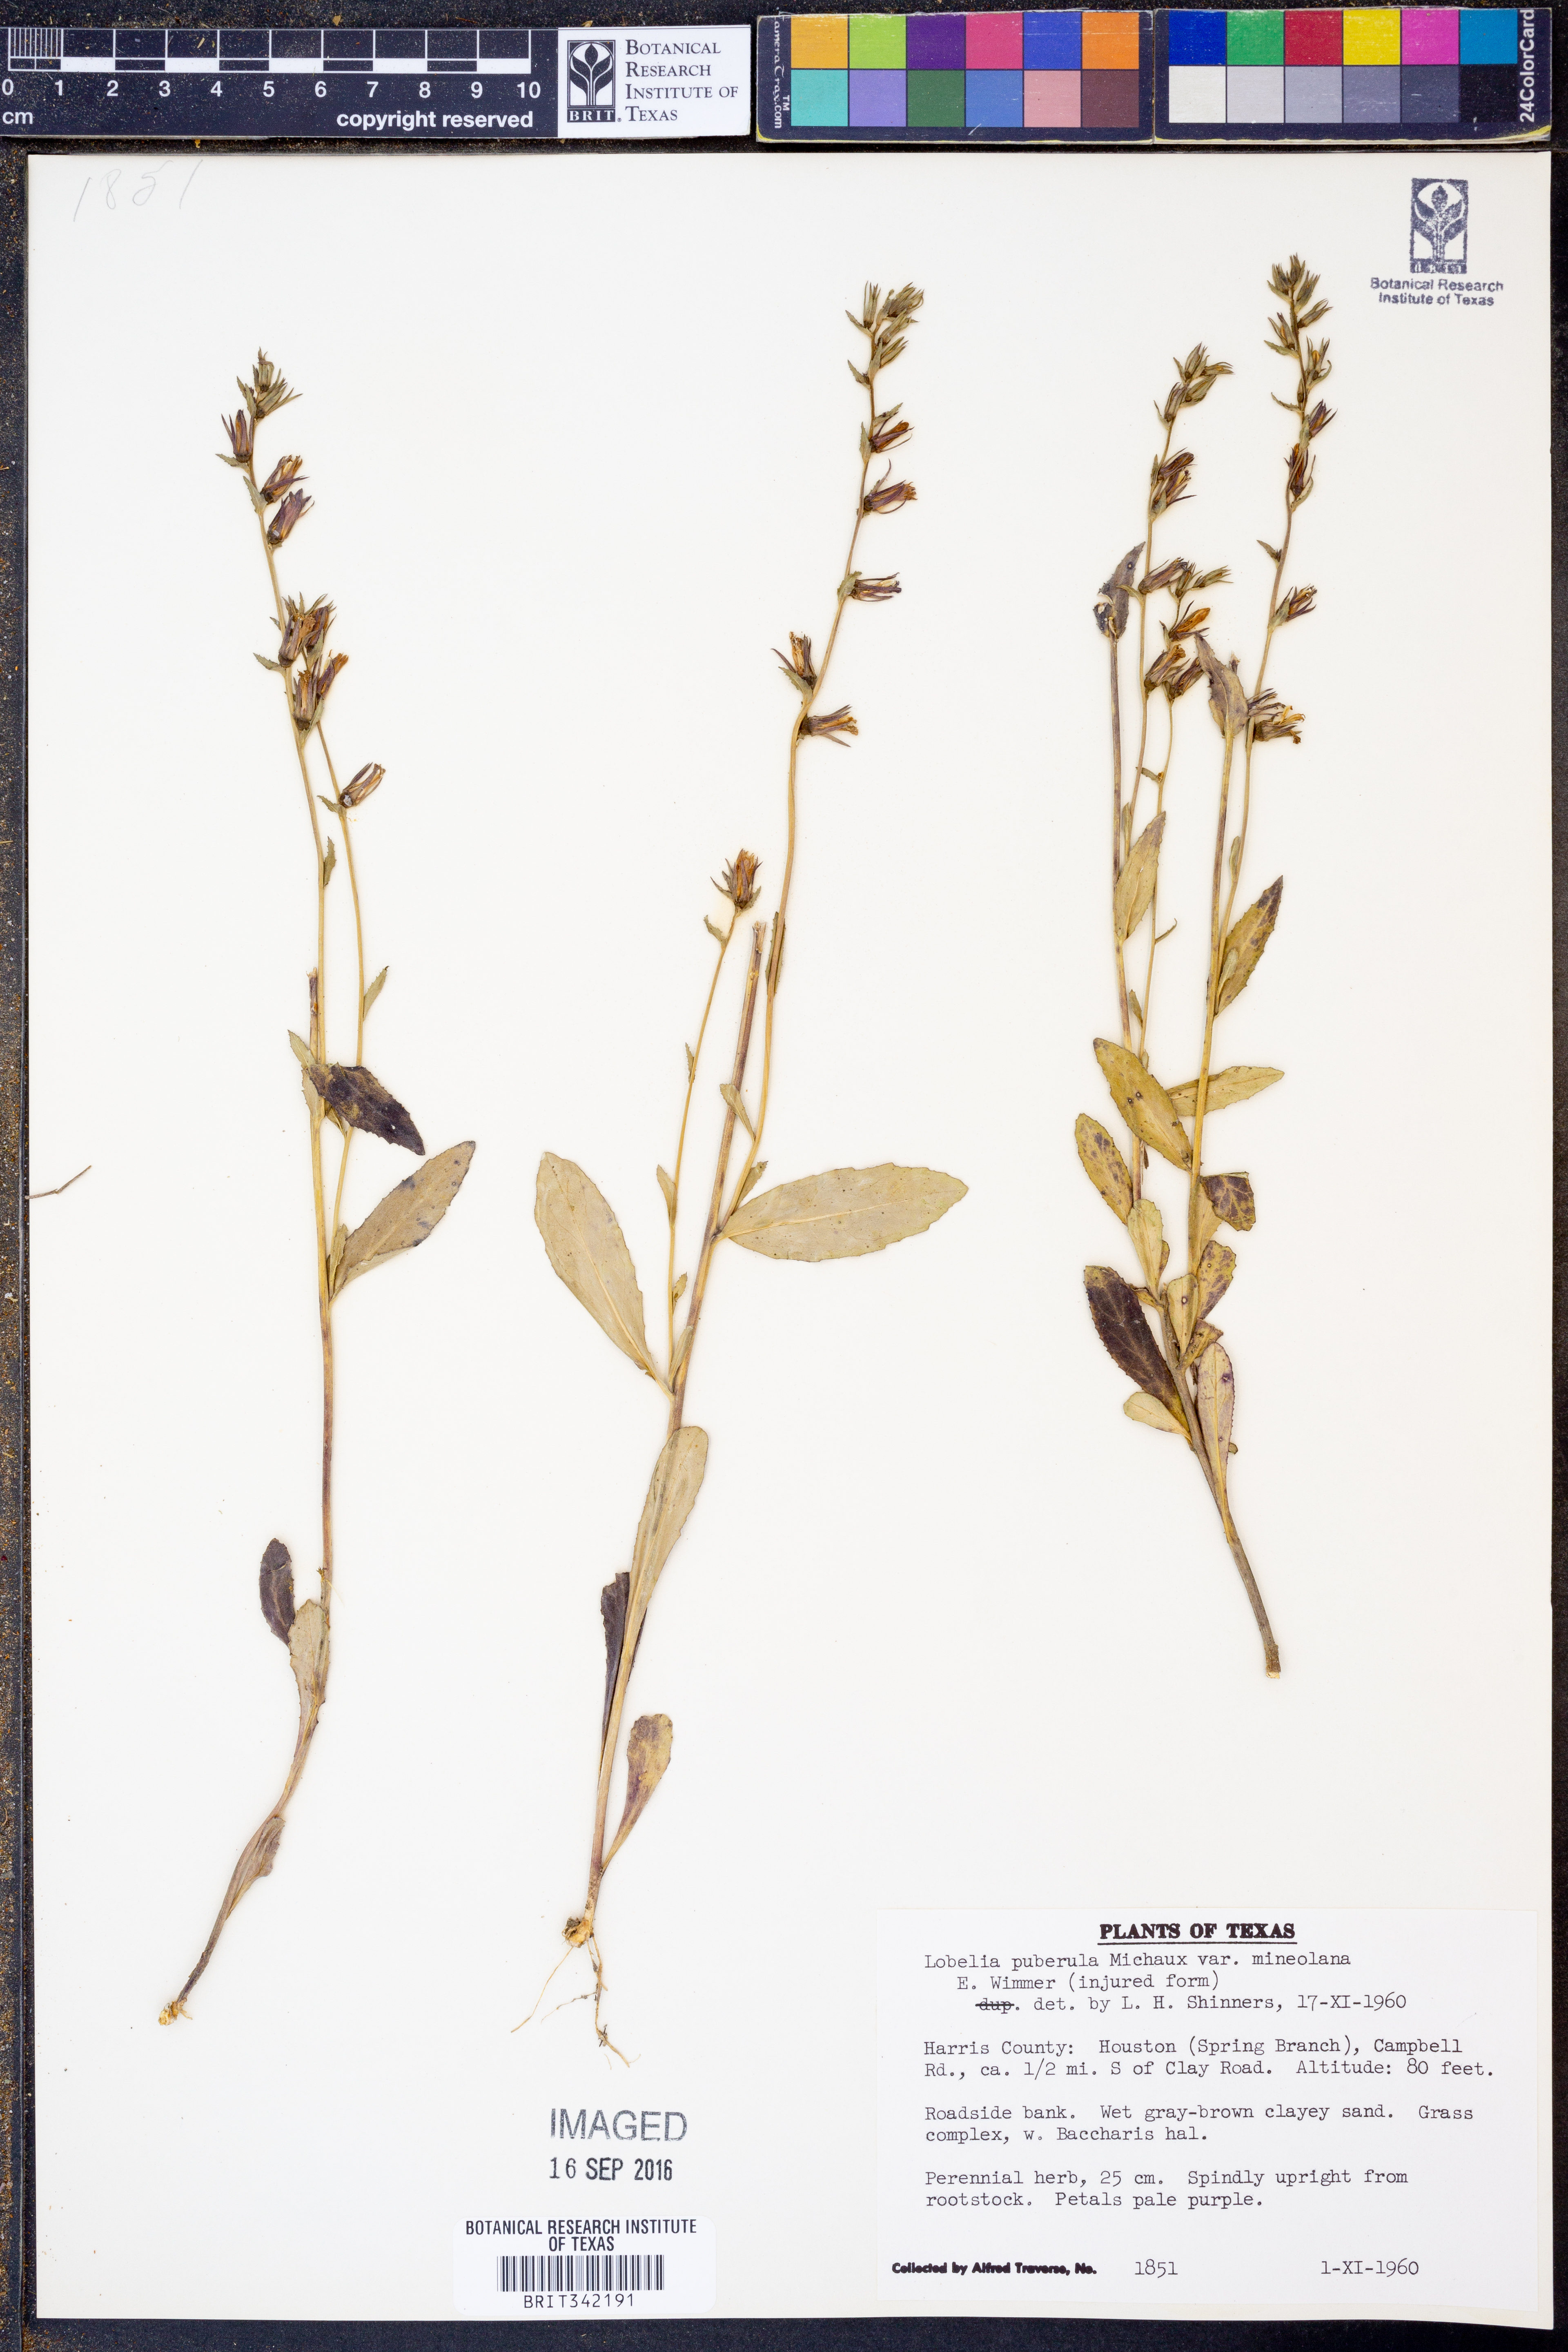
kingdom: Plantae
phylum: Tracheophyta
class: Magnoliopsida
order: Asterales
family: Campanulaceae
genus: Lobelia
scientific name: Lobelia puberula
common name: Purple dewdrop
